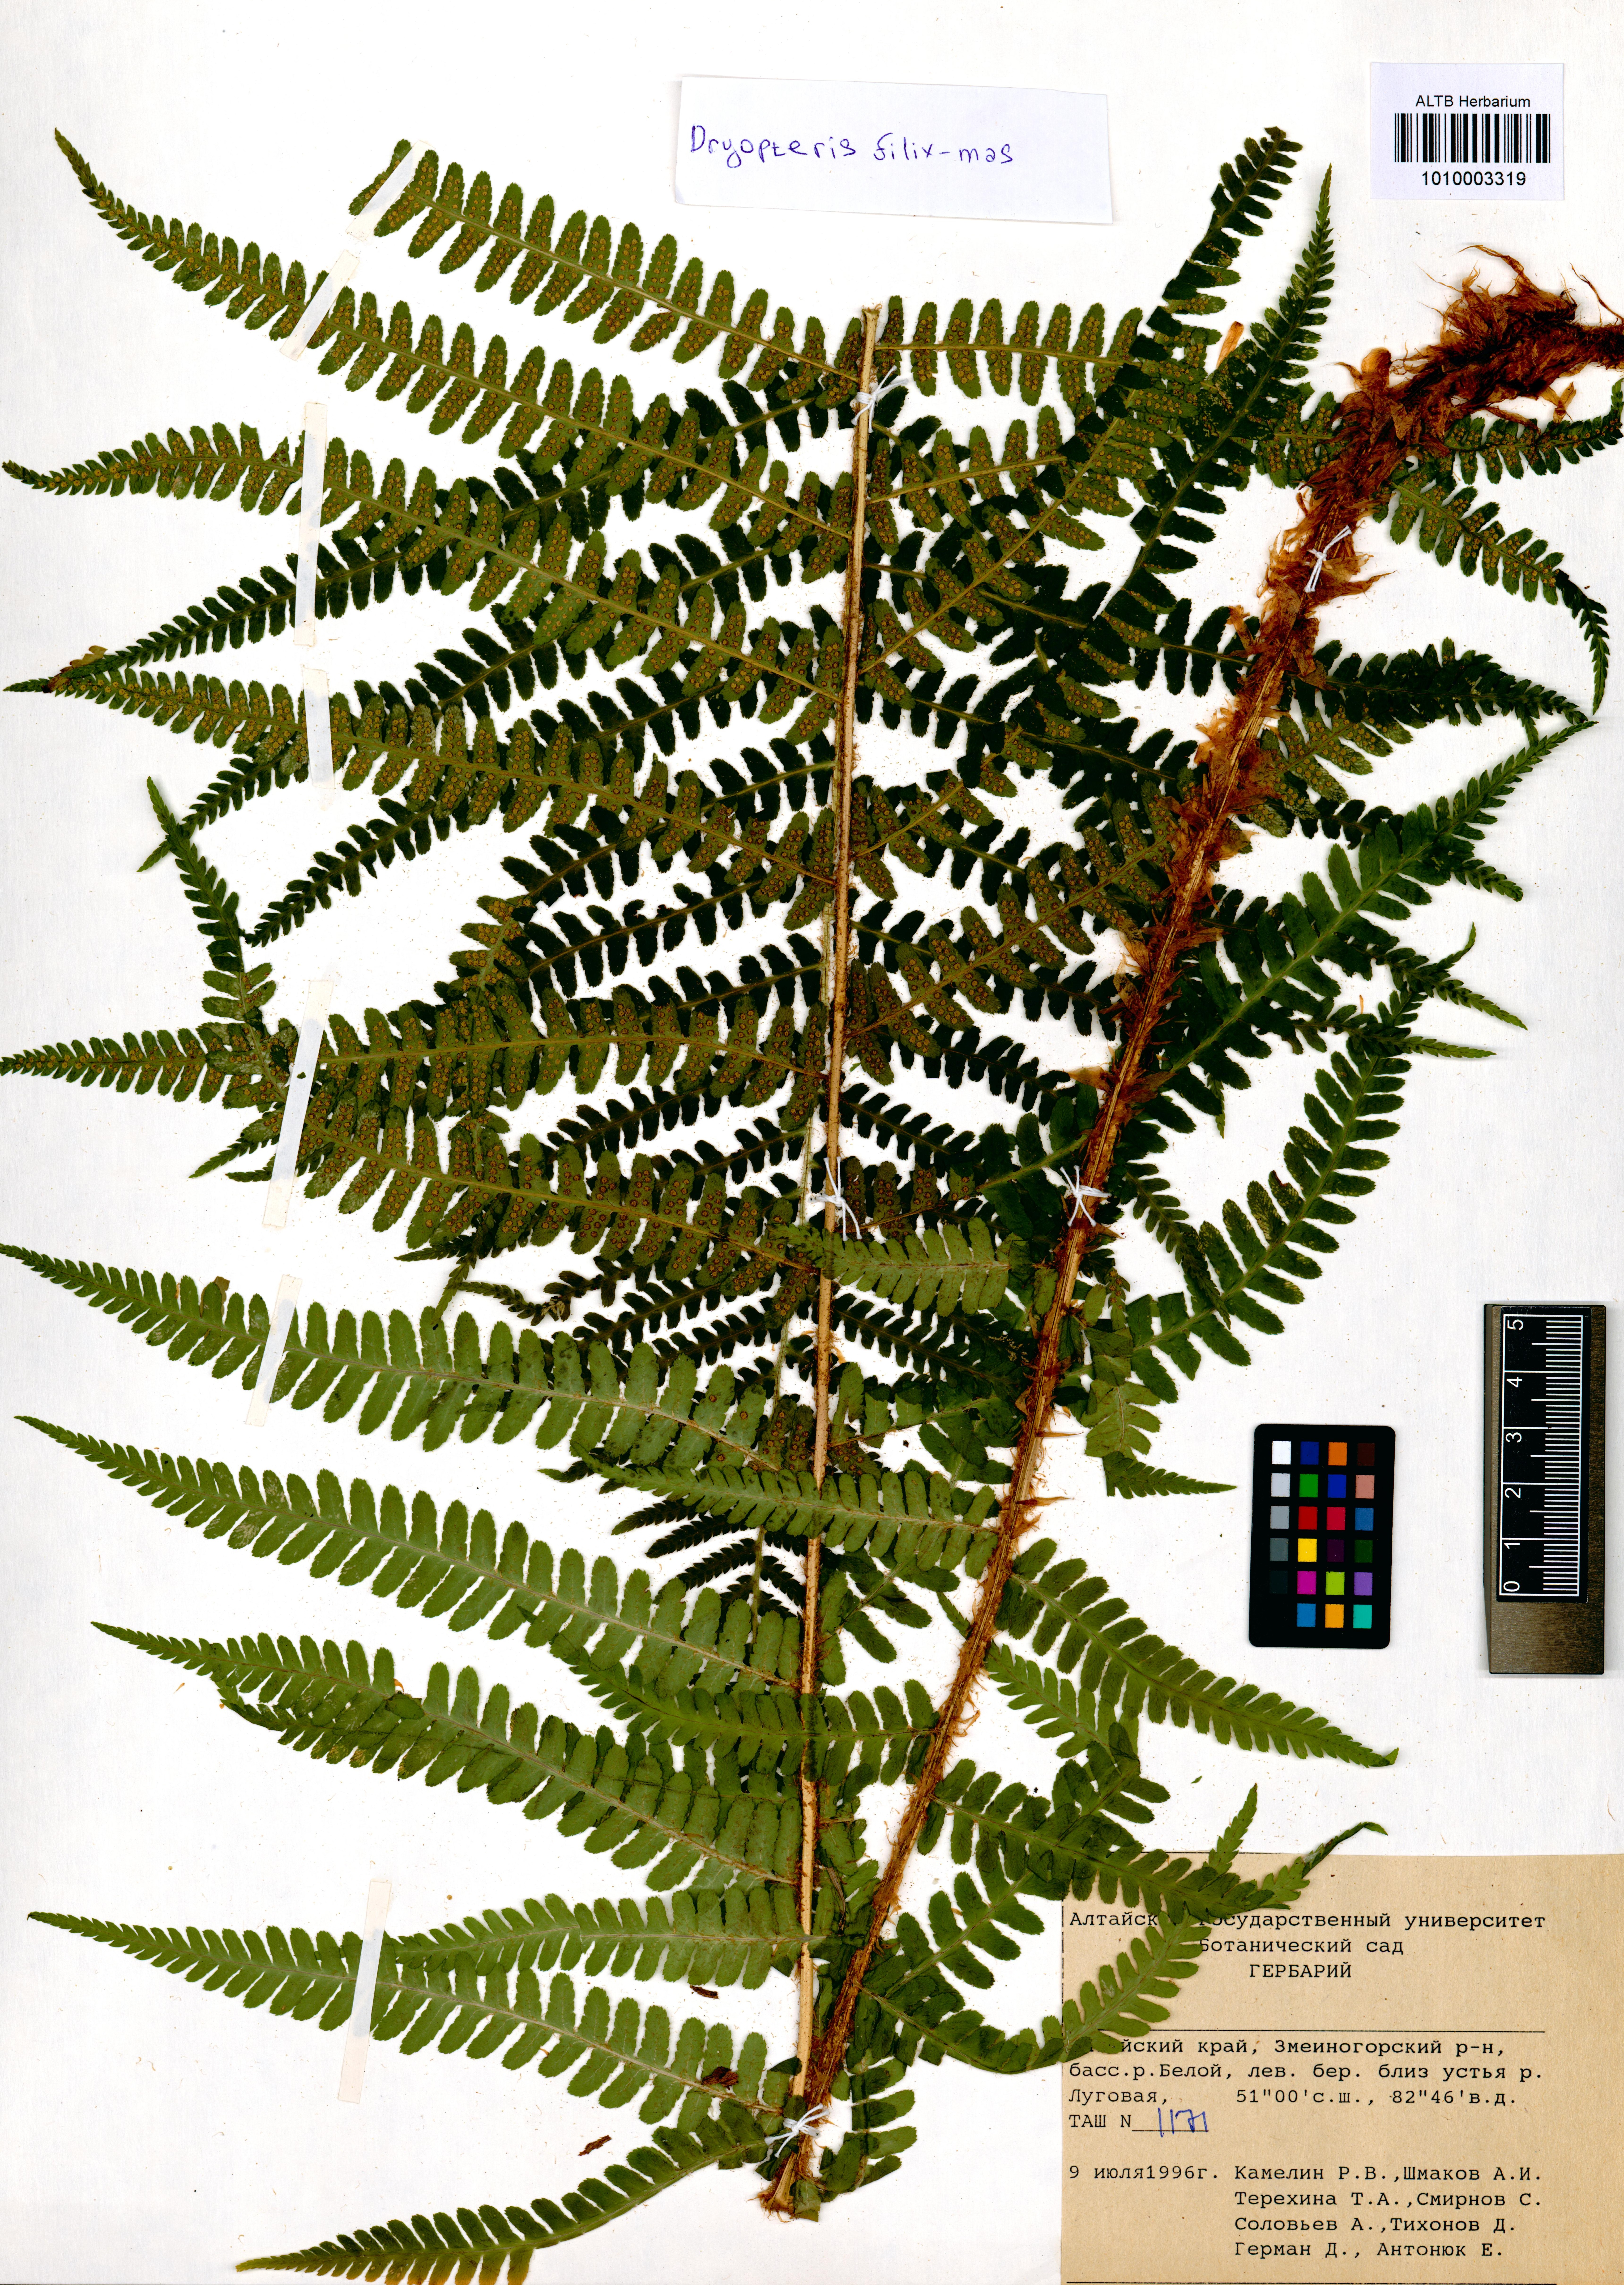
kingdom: Plantae
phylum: Tracheophyta
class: Polypodiopsida
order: Polypodiales
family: Dryopteridaceae
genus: Dryopteris
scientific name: Dryopteris filix-mas
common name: Male fern
